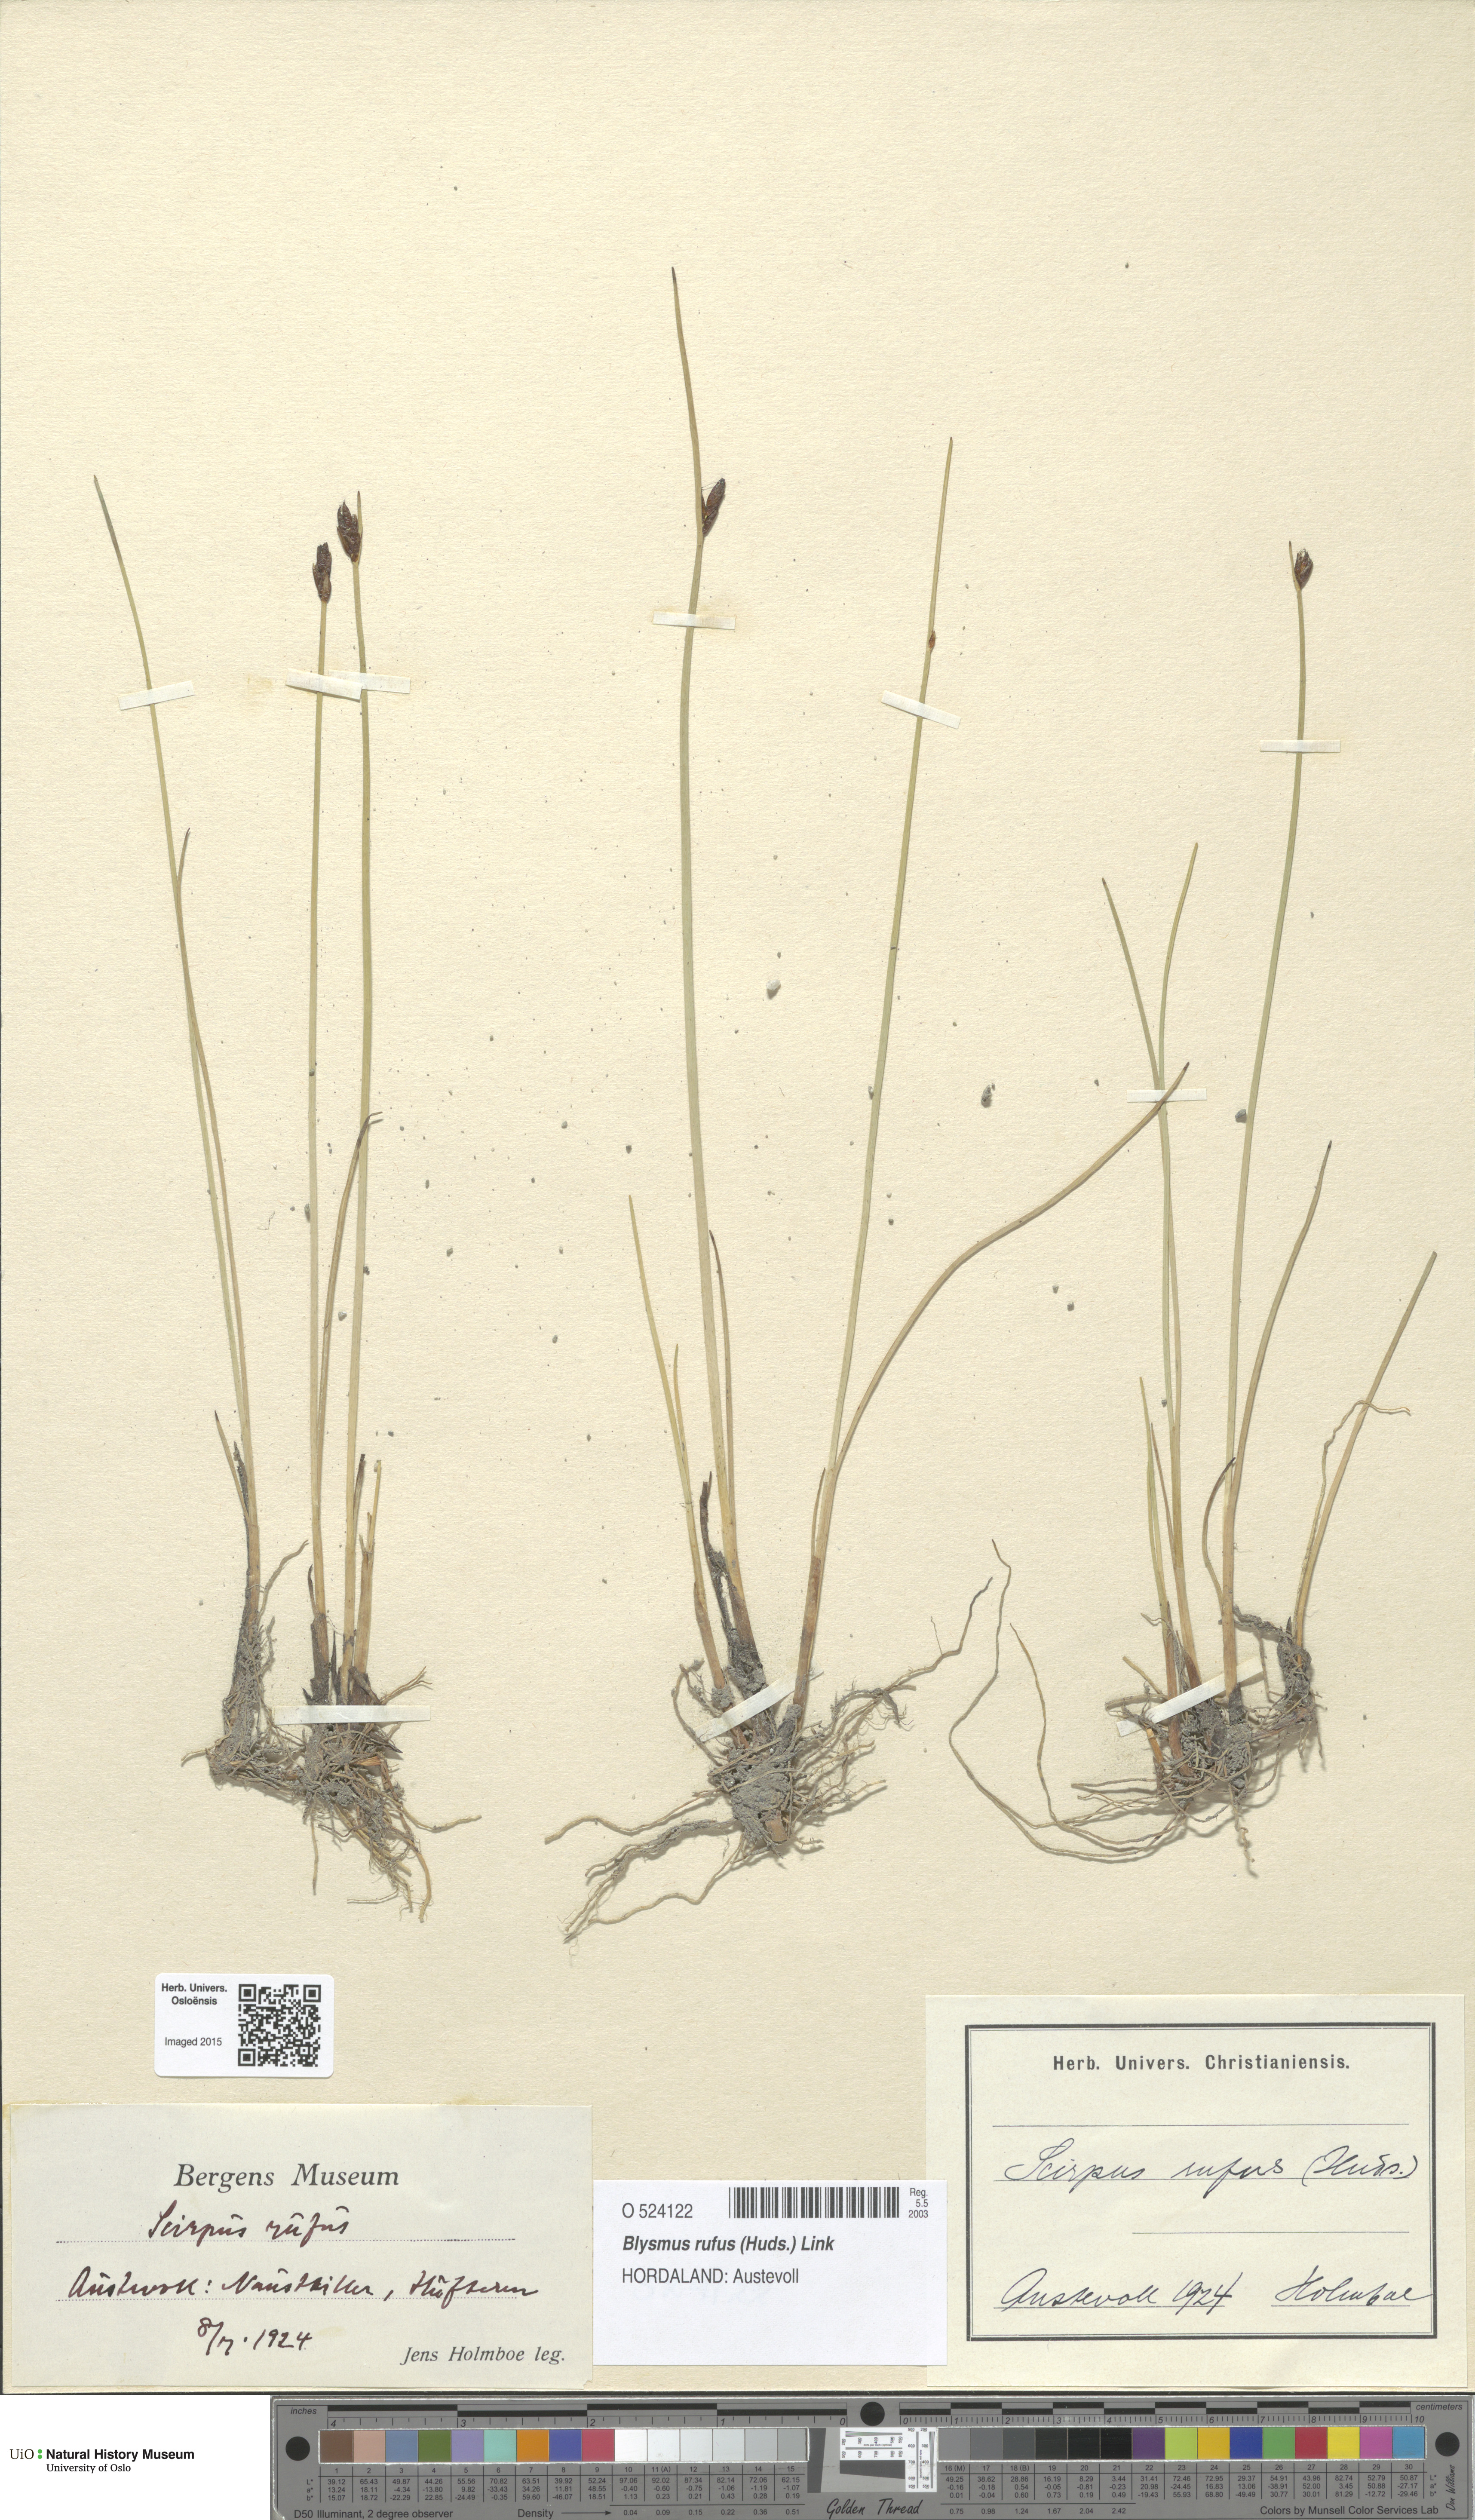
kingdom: Plantae
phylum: Tracheophyta
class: Liliopsida
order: Poales
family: Cyperaceae
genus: Blysmus
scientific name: Blysmus rufus
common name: Saltmarsh flat-sedge
